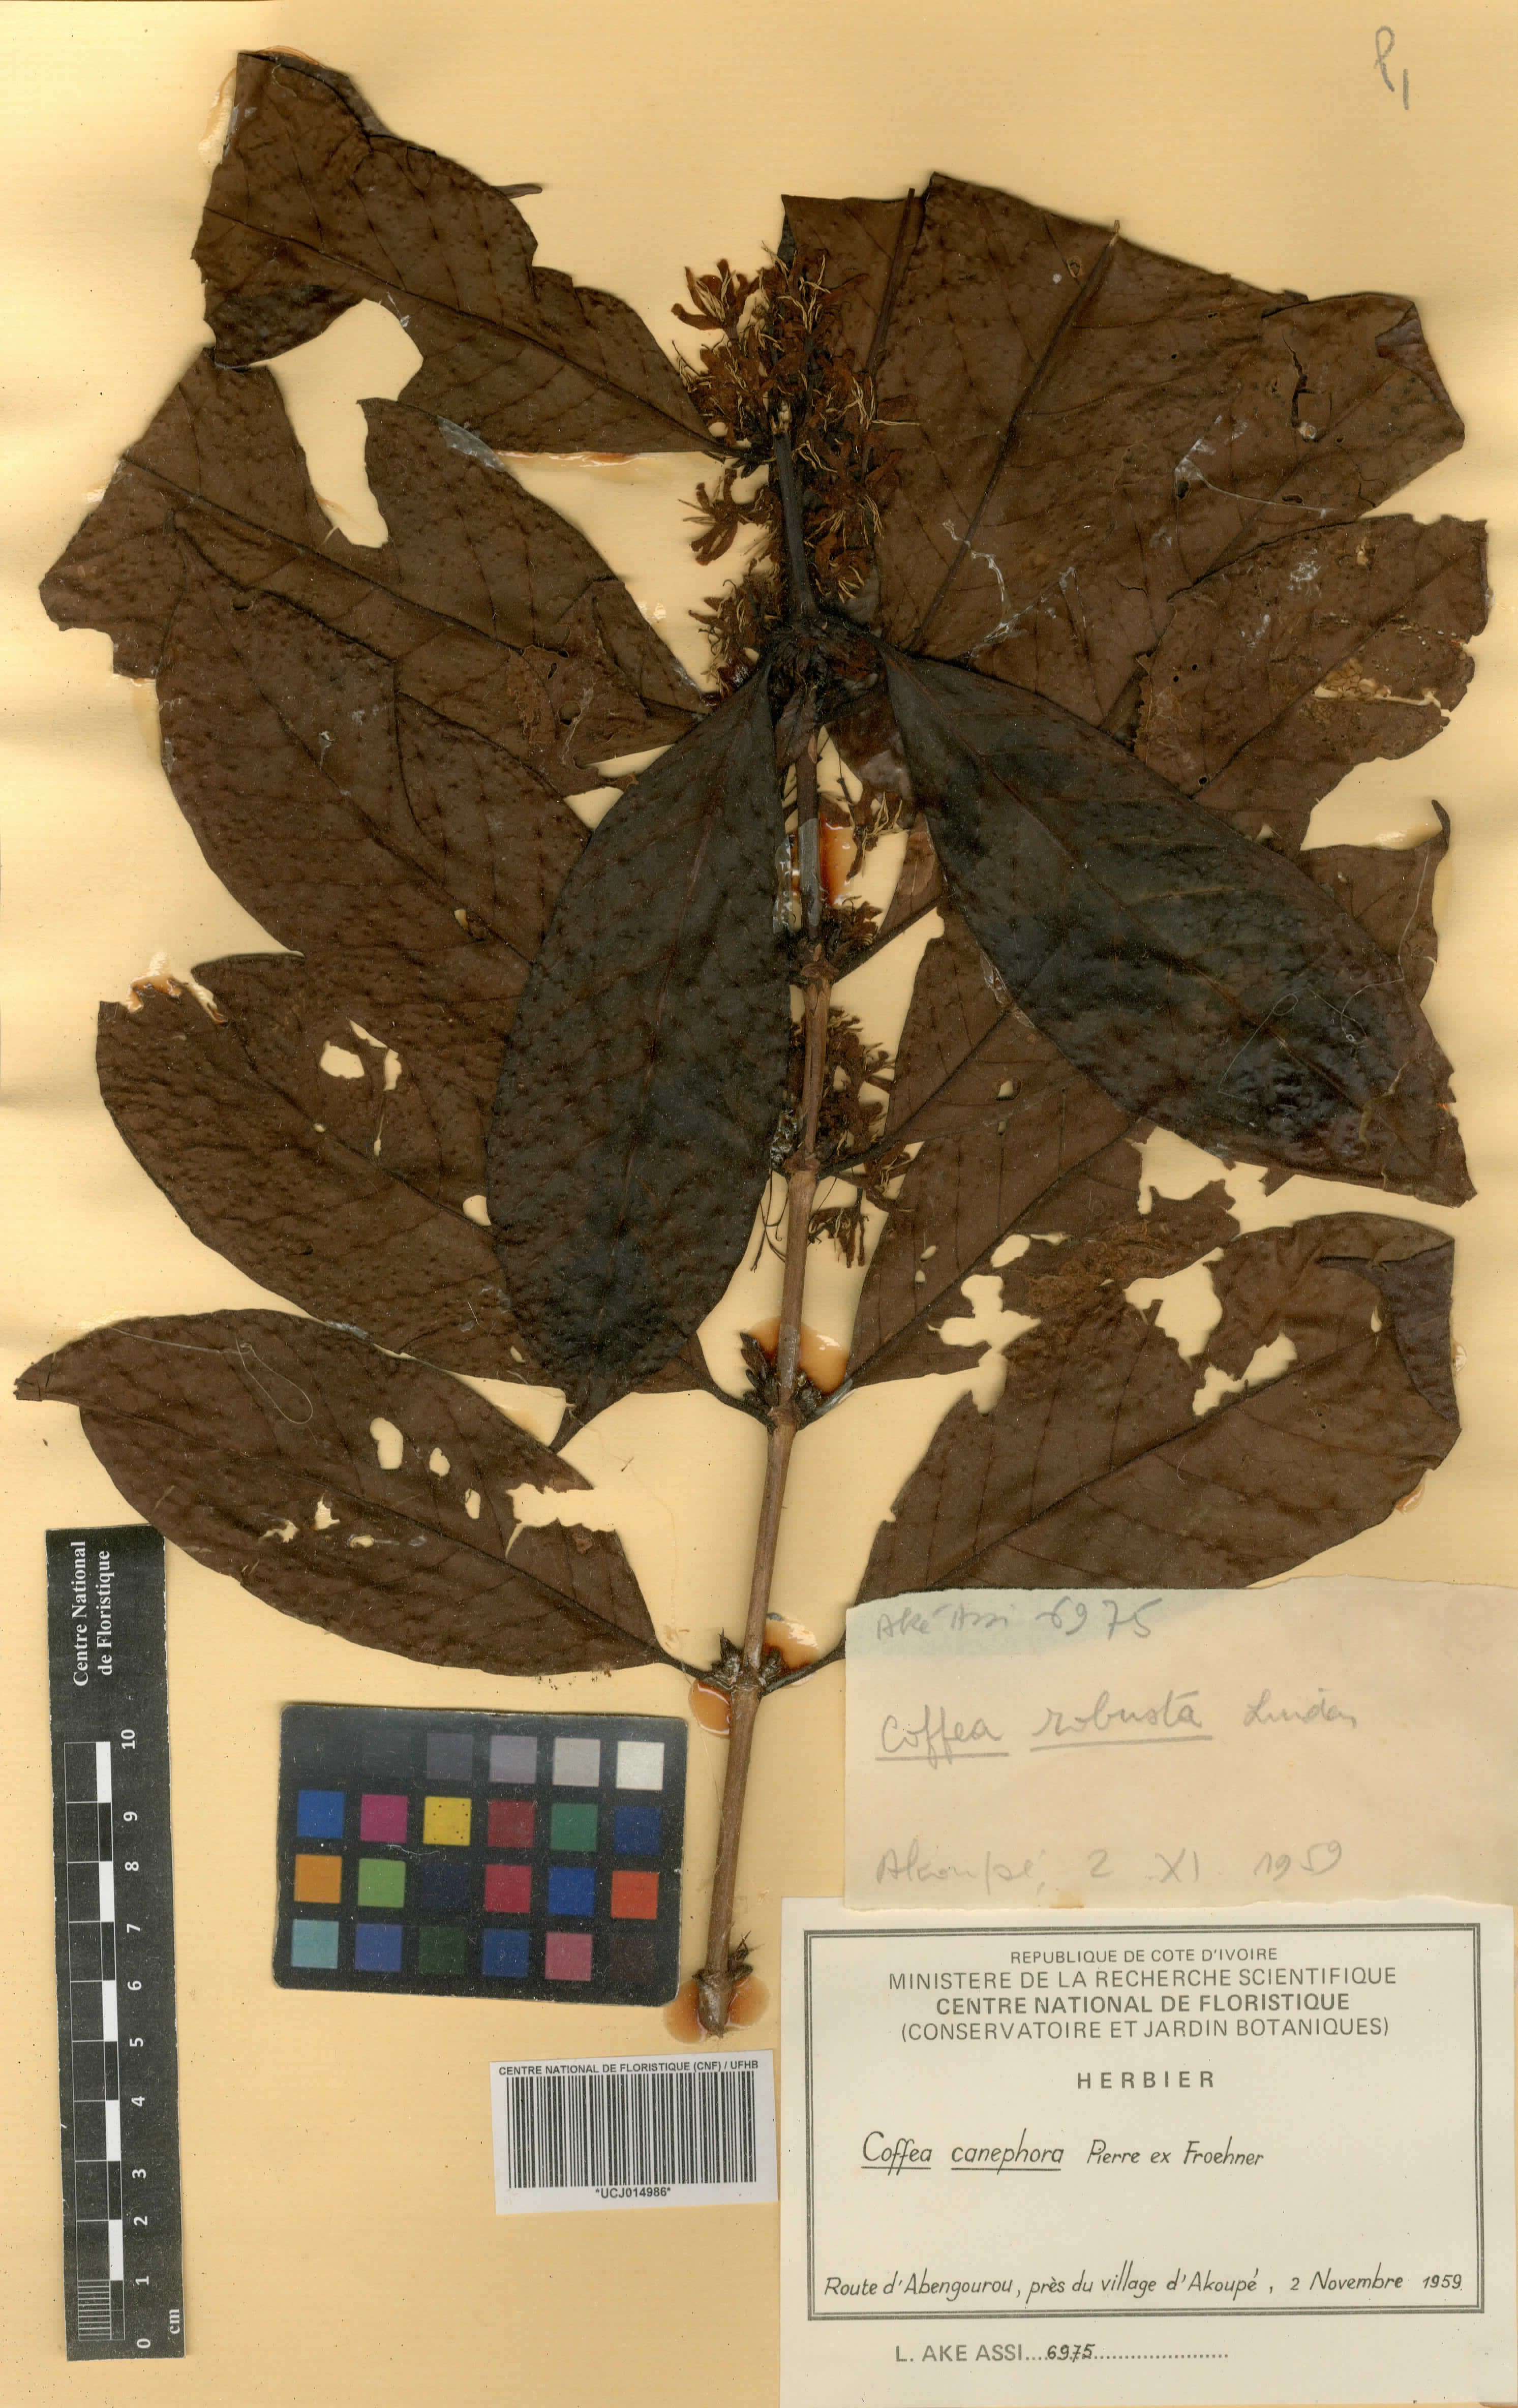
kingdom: Plantae
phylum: Tracheophyta
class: Magnoliopsida
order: Gentianales
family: Rubiaceae
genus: Coffea
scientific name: Coffea canephora
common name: Robusta coffee
